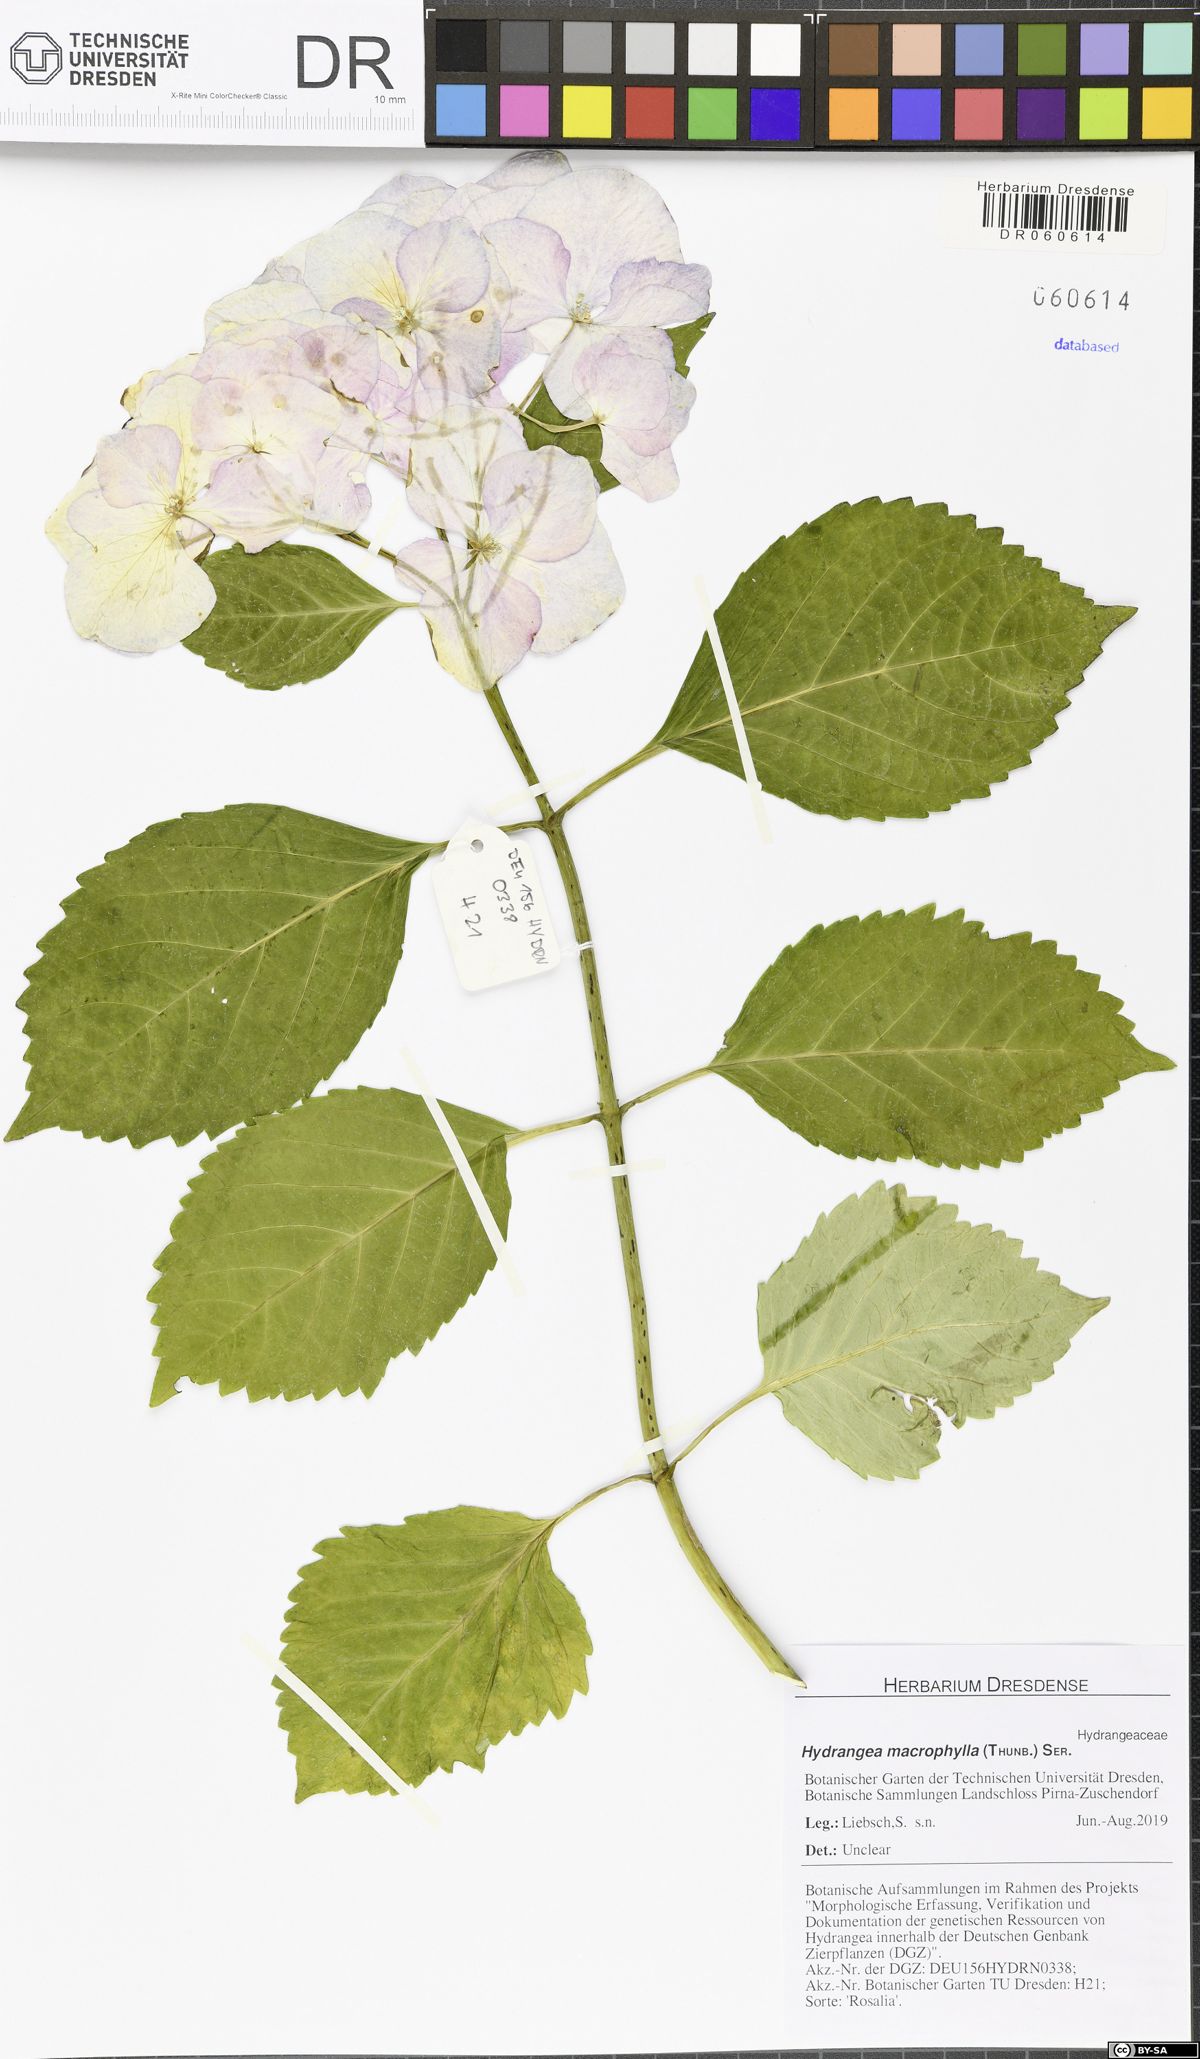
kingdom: Plantae
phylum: Tracheophyta
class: Magnoliopsida
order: Cornales
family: Hydrangeaceae
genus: Hydrangea
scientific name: Hydrangea macrophylla
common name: Hydrangea
